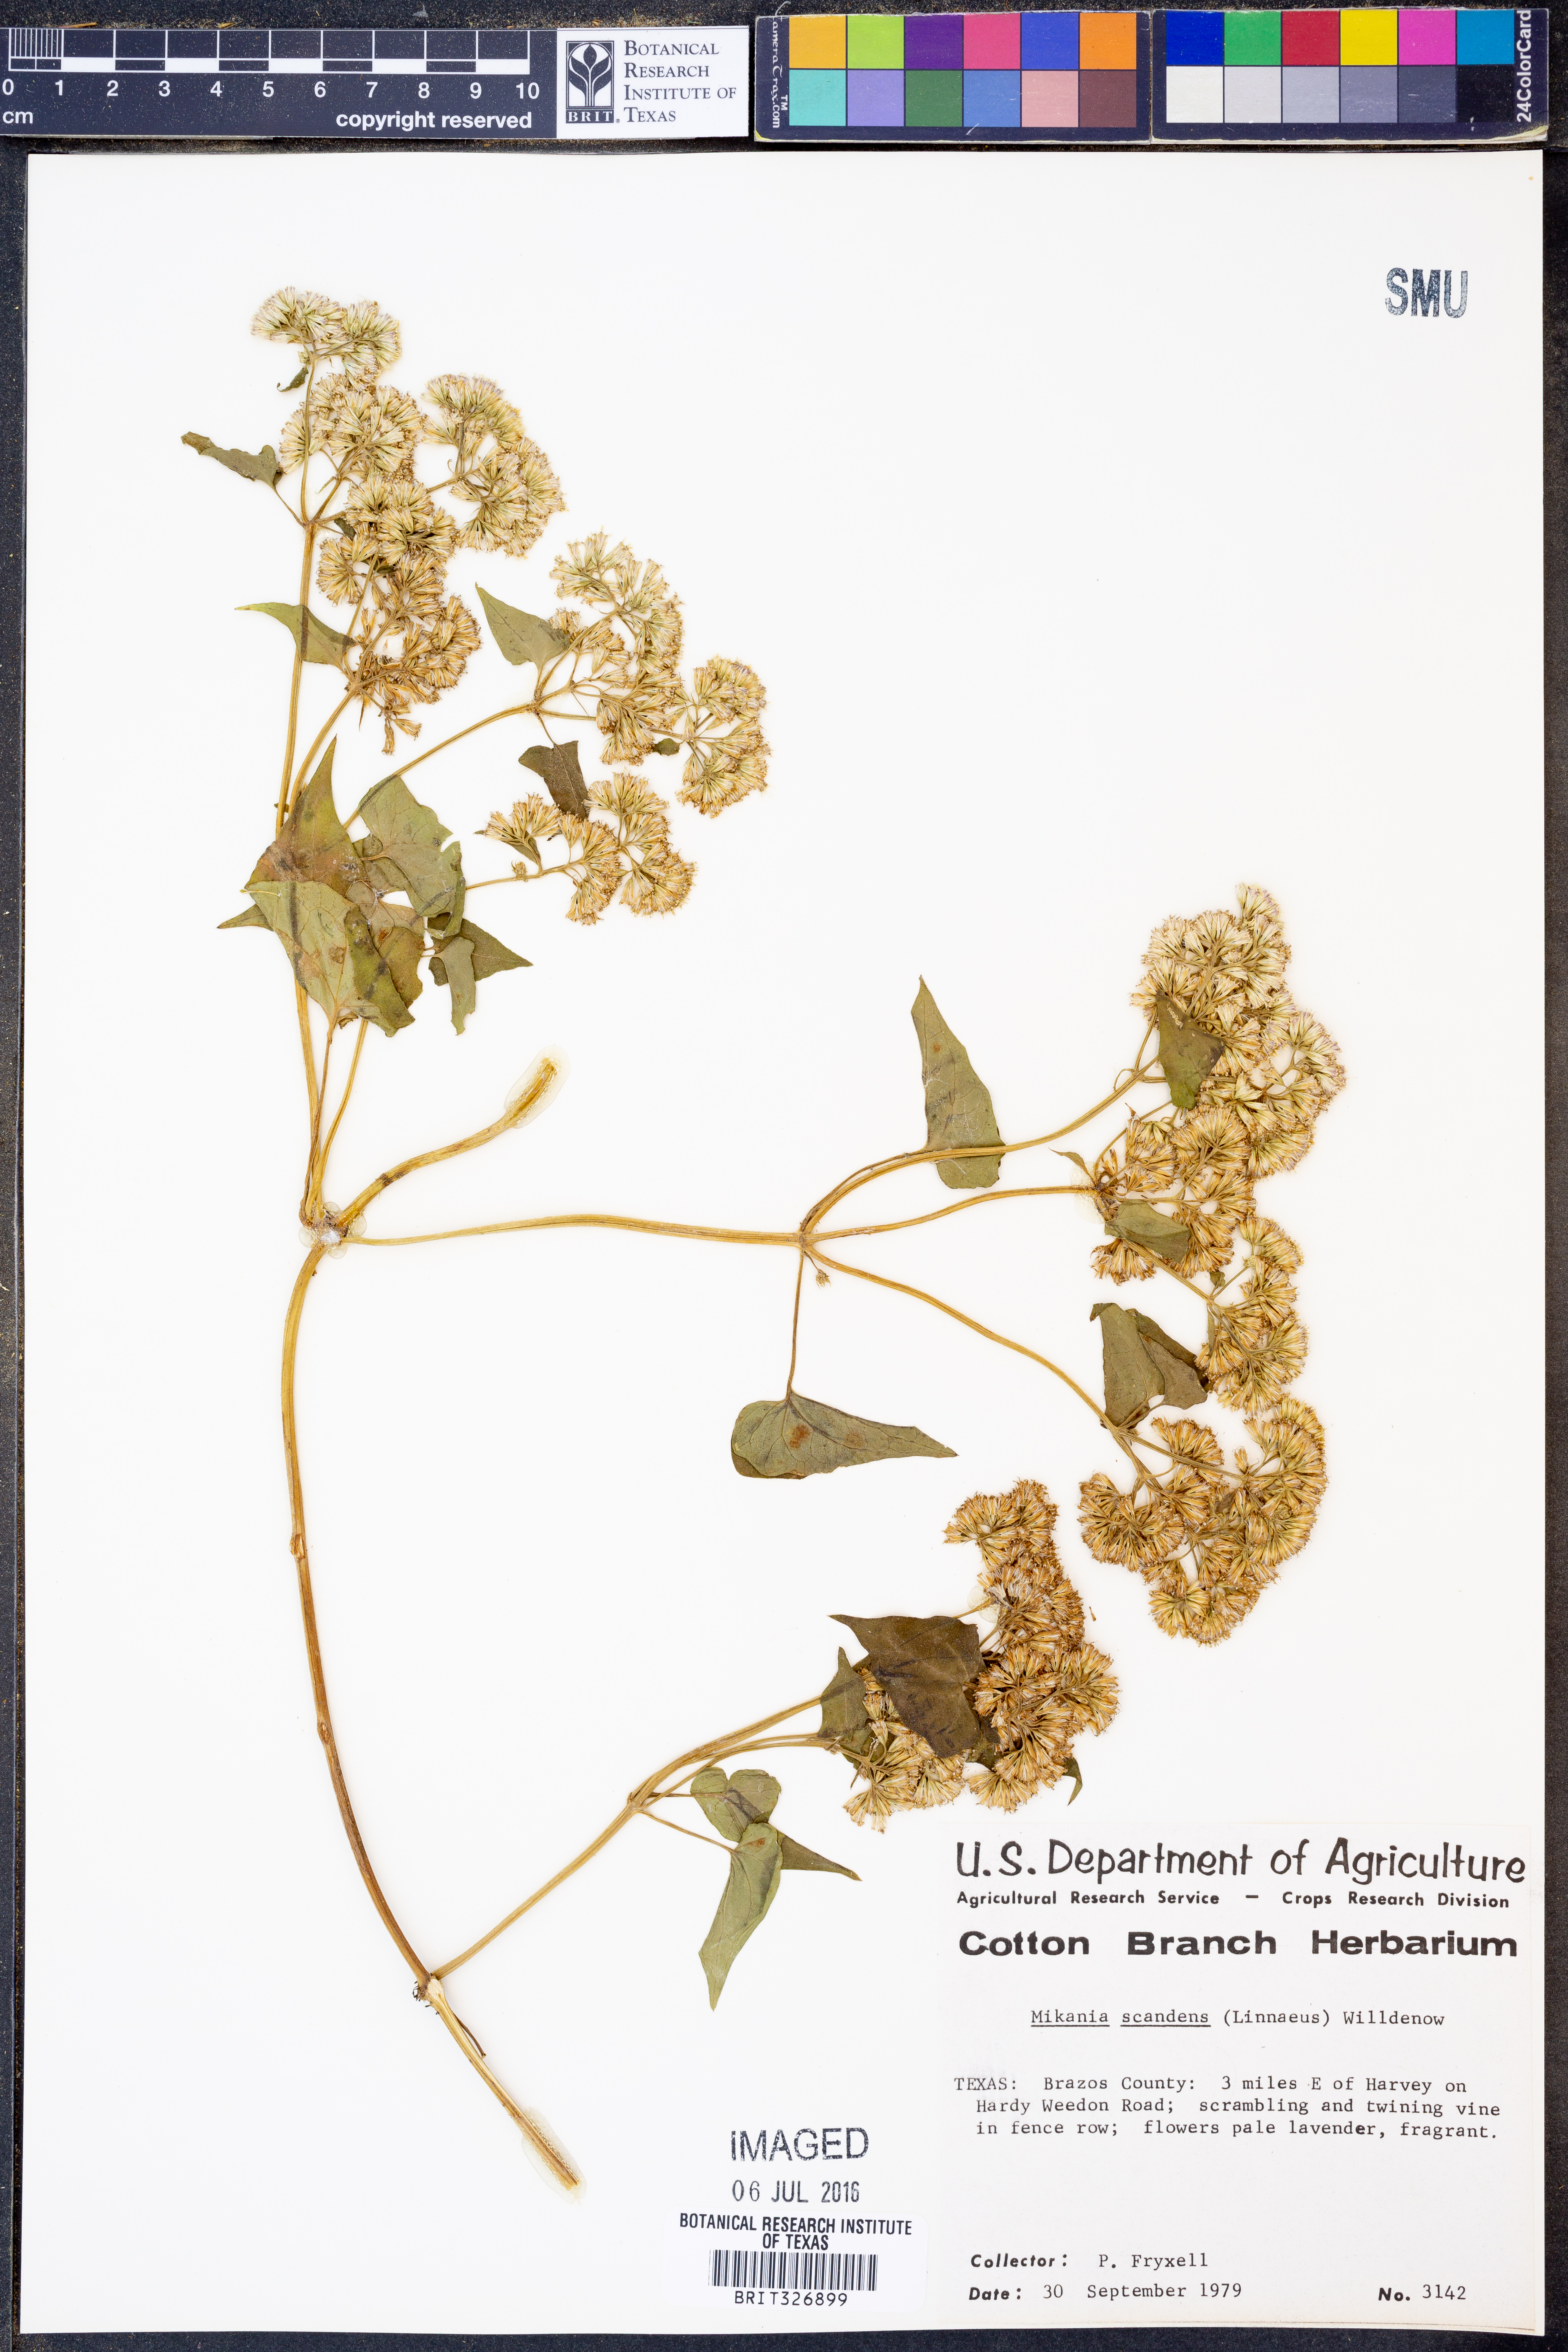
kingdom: Plantae
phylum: Tracheophyta
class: Magnoliopsida
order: Asterales
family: Asteraceae
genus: Mikania
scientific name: Mikania scandens
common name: Climbing hempvine
